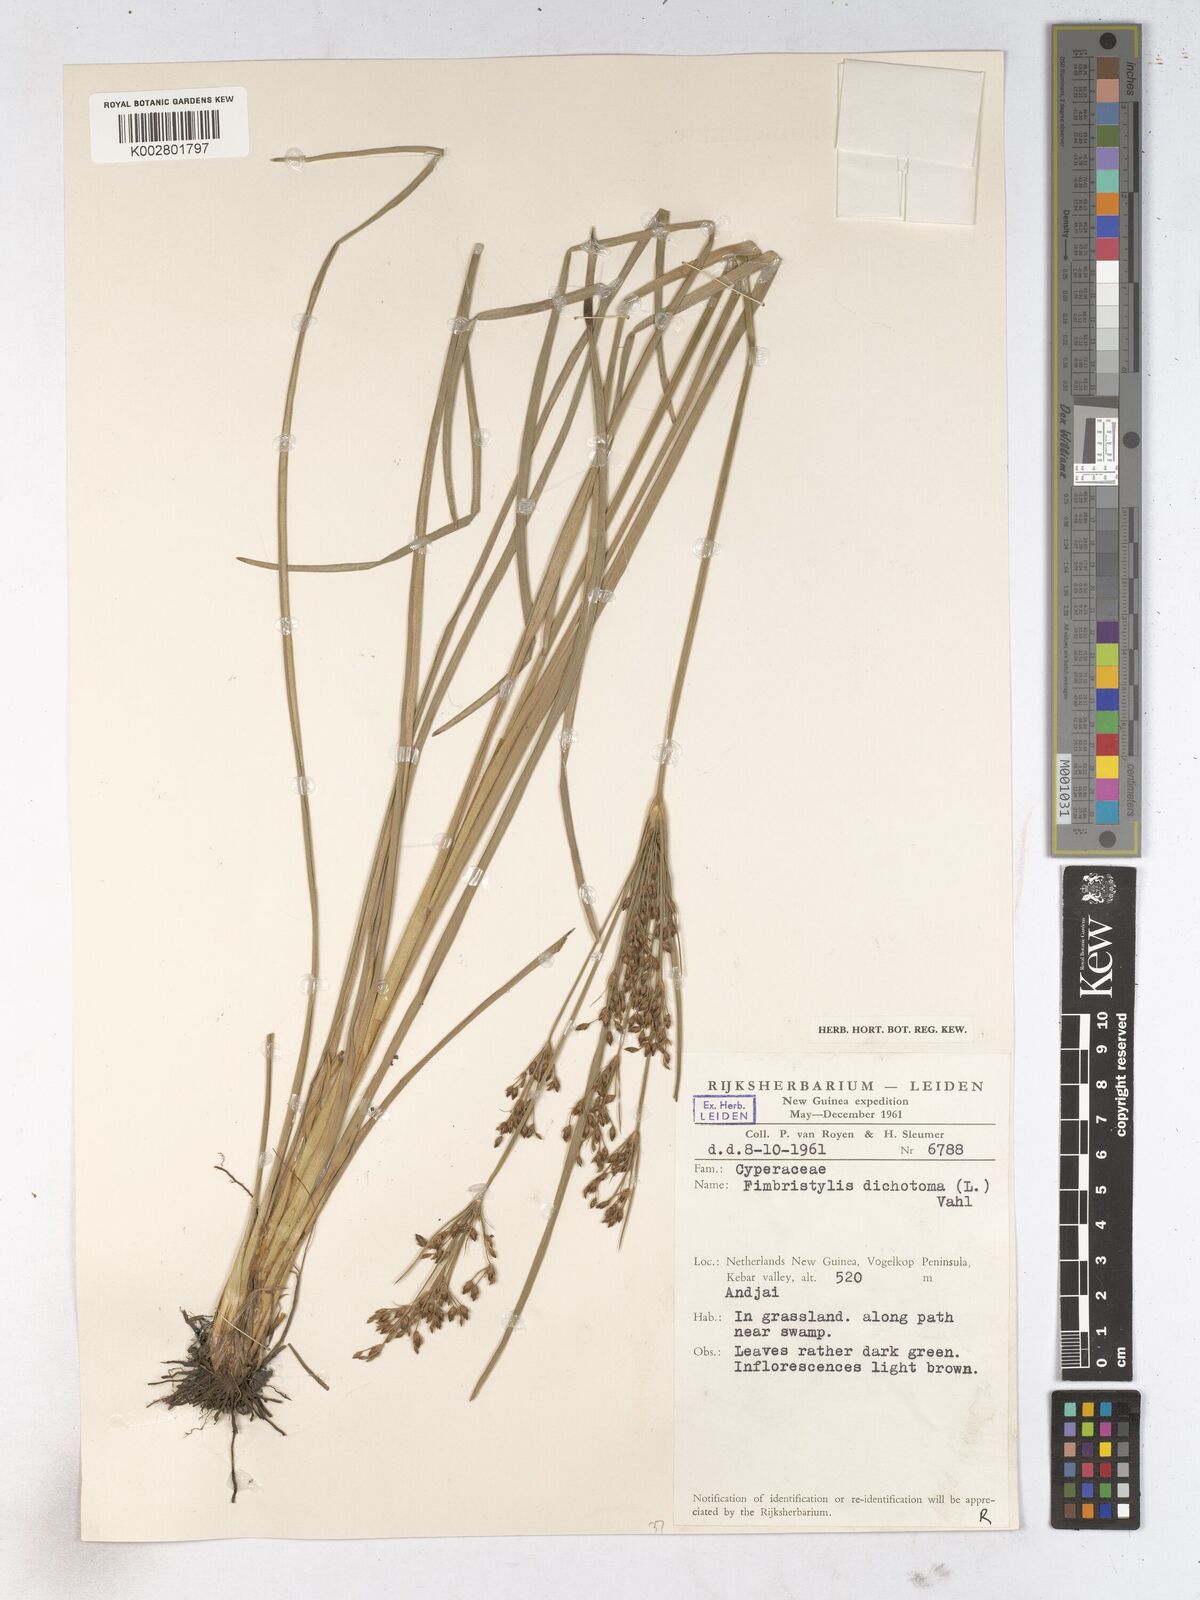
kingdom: Plantae
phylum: Tracheophyta
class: Liliopsida
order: Poales
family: Cyperaceae
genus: Fimbristylis
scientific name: Fimbristylis dichotoma
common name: Forked fimbry
